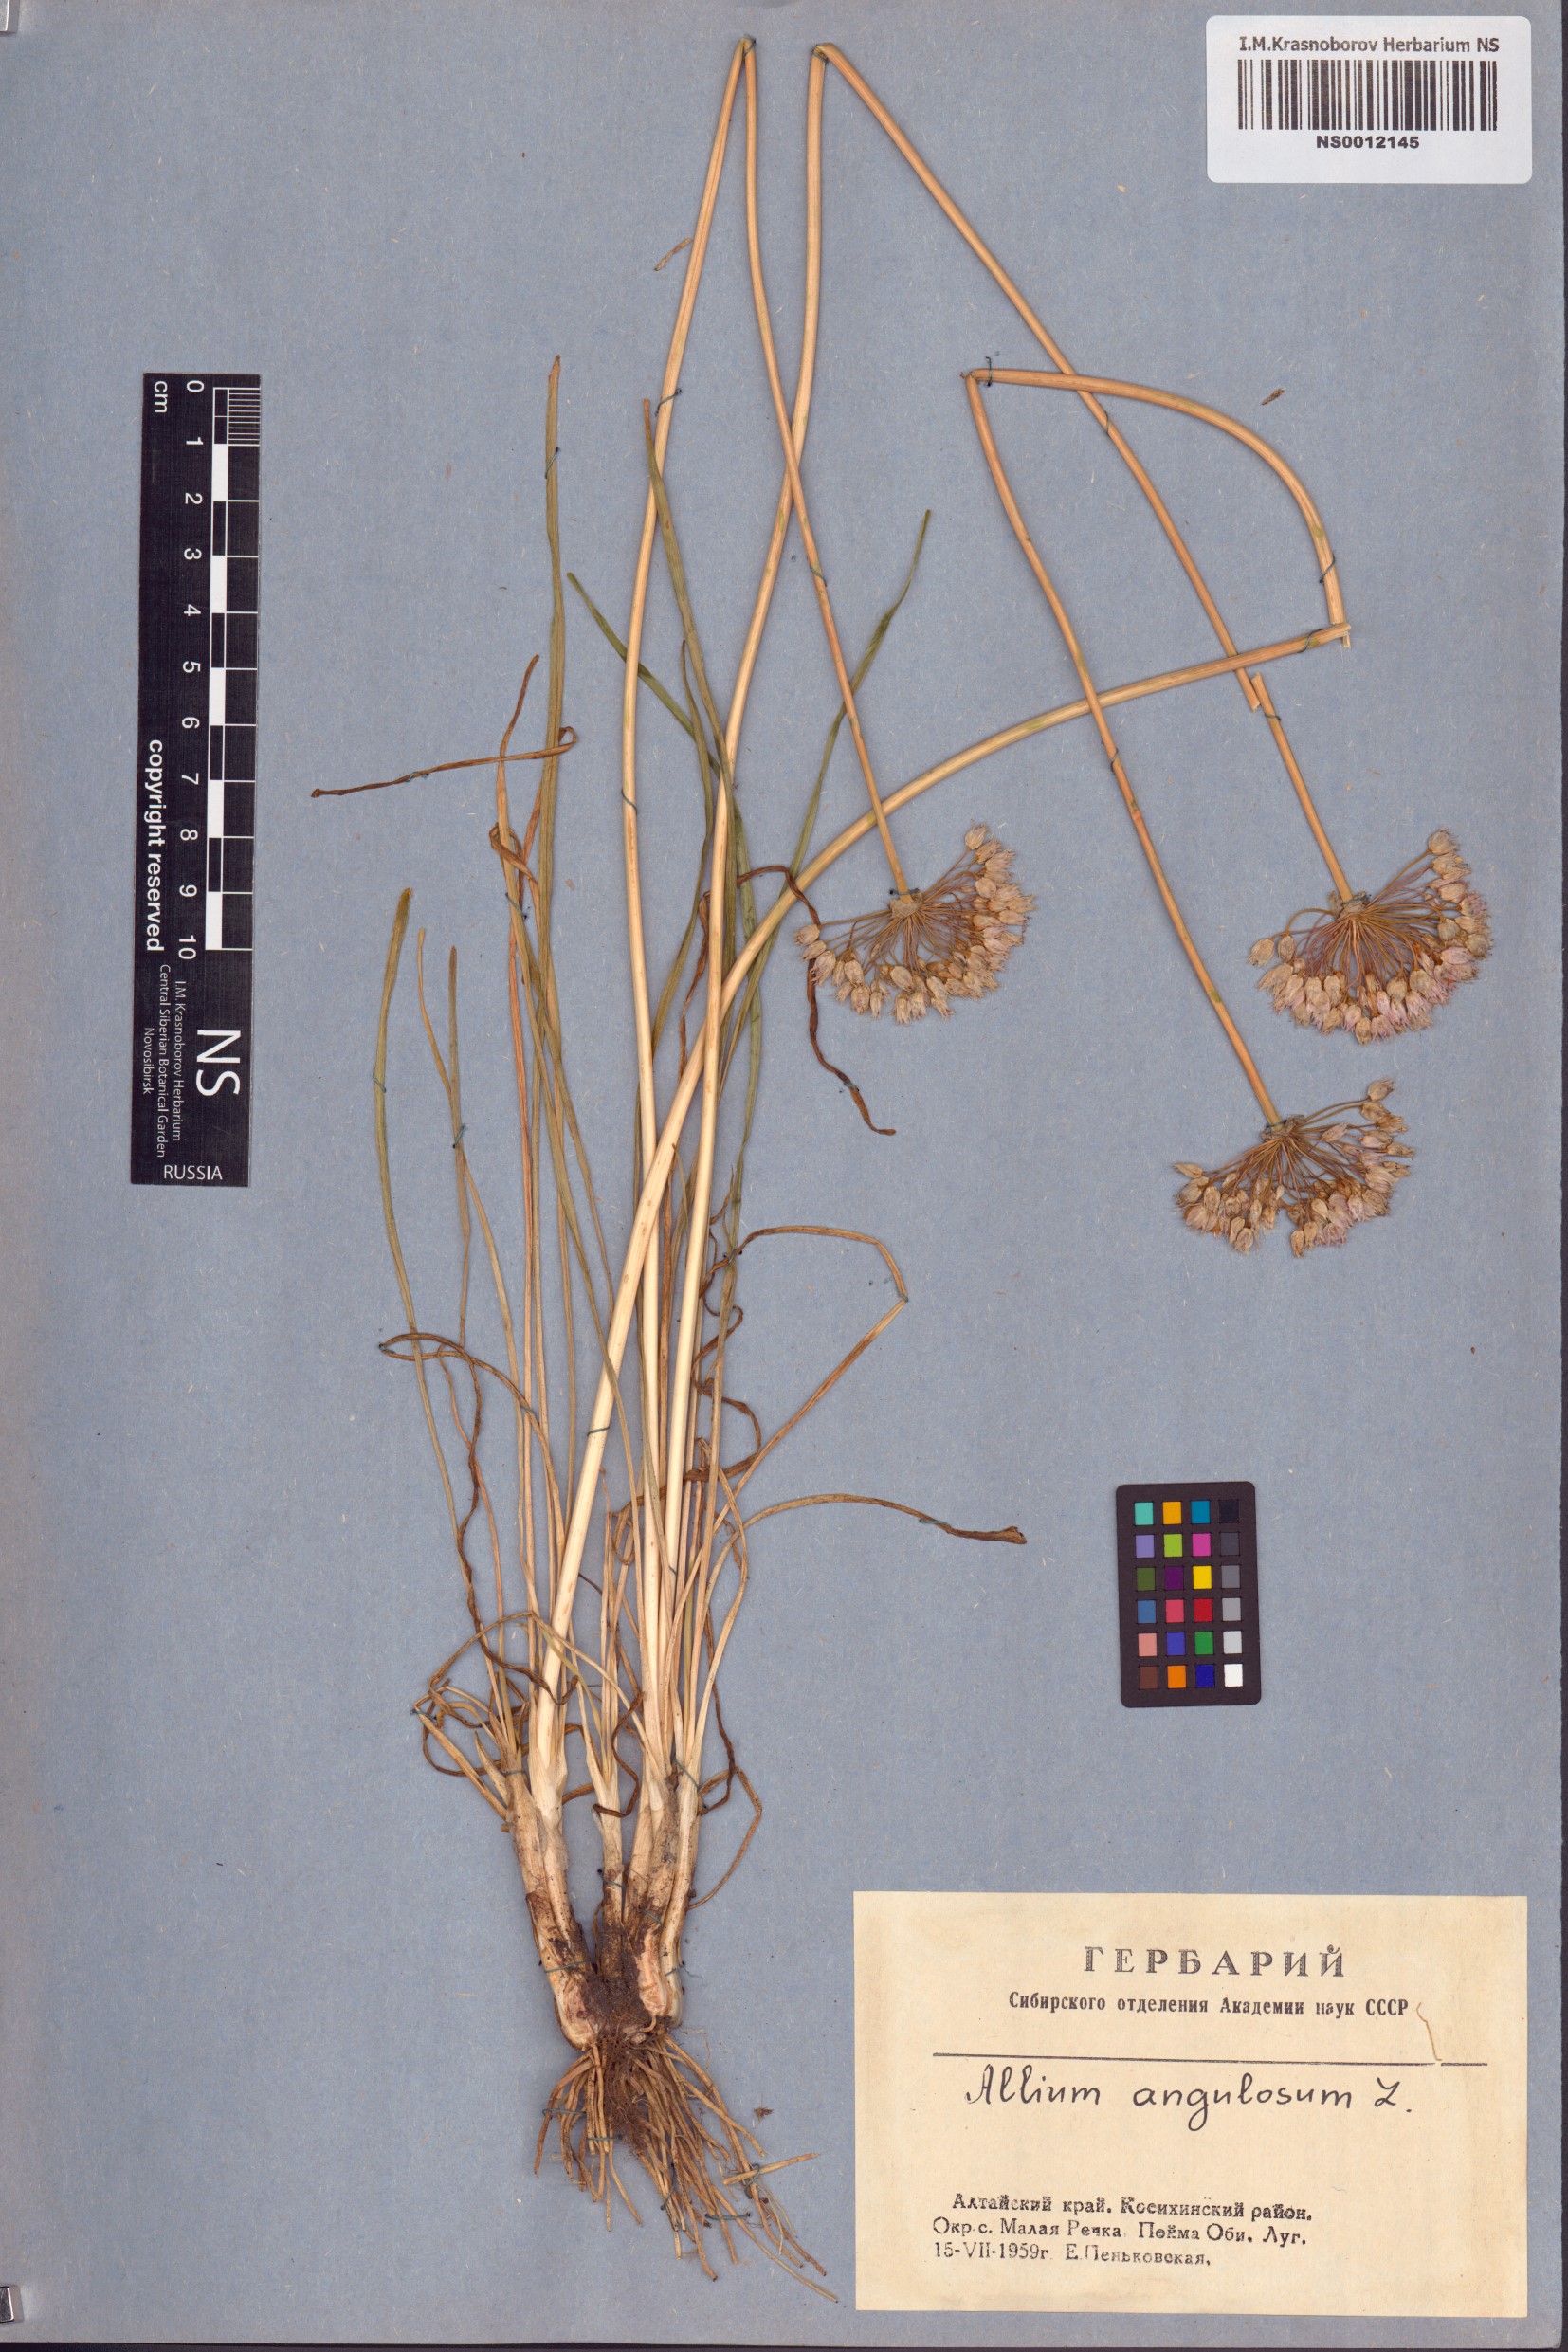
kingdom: Plantae
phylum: Tracheophyta
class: Liliopsida
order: Asparagales
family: Amaryllidaceae
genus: Allium
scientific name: Allium angulosum
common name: Mouse garlic
